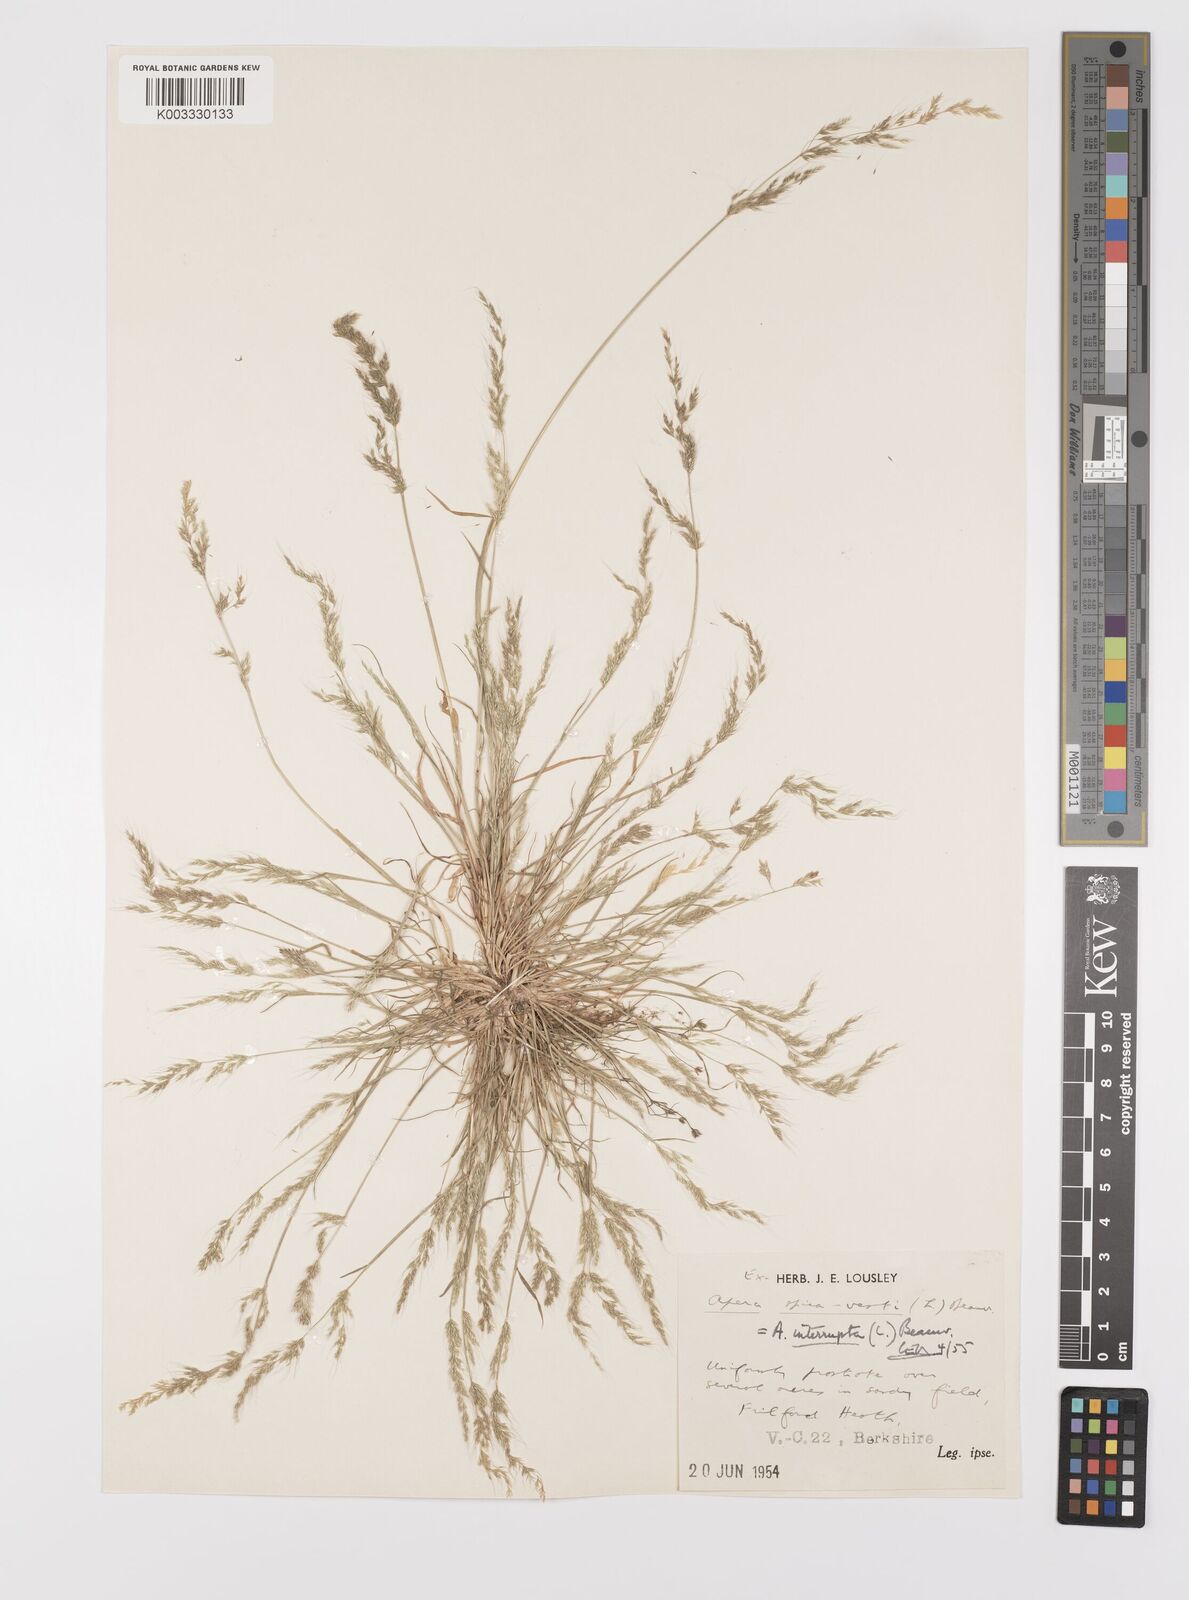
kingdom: Plantae
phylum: Tracheophyta
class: Liliopsida
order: Poales
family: Poaceae
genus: Apera
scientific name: Apera interrupta
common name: Dense silky-bent
